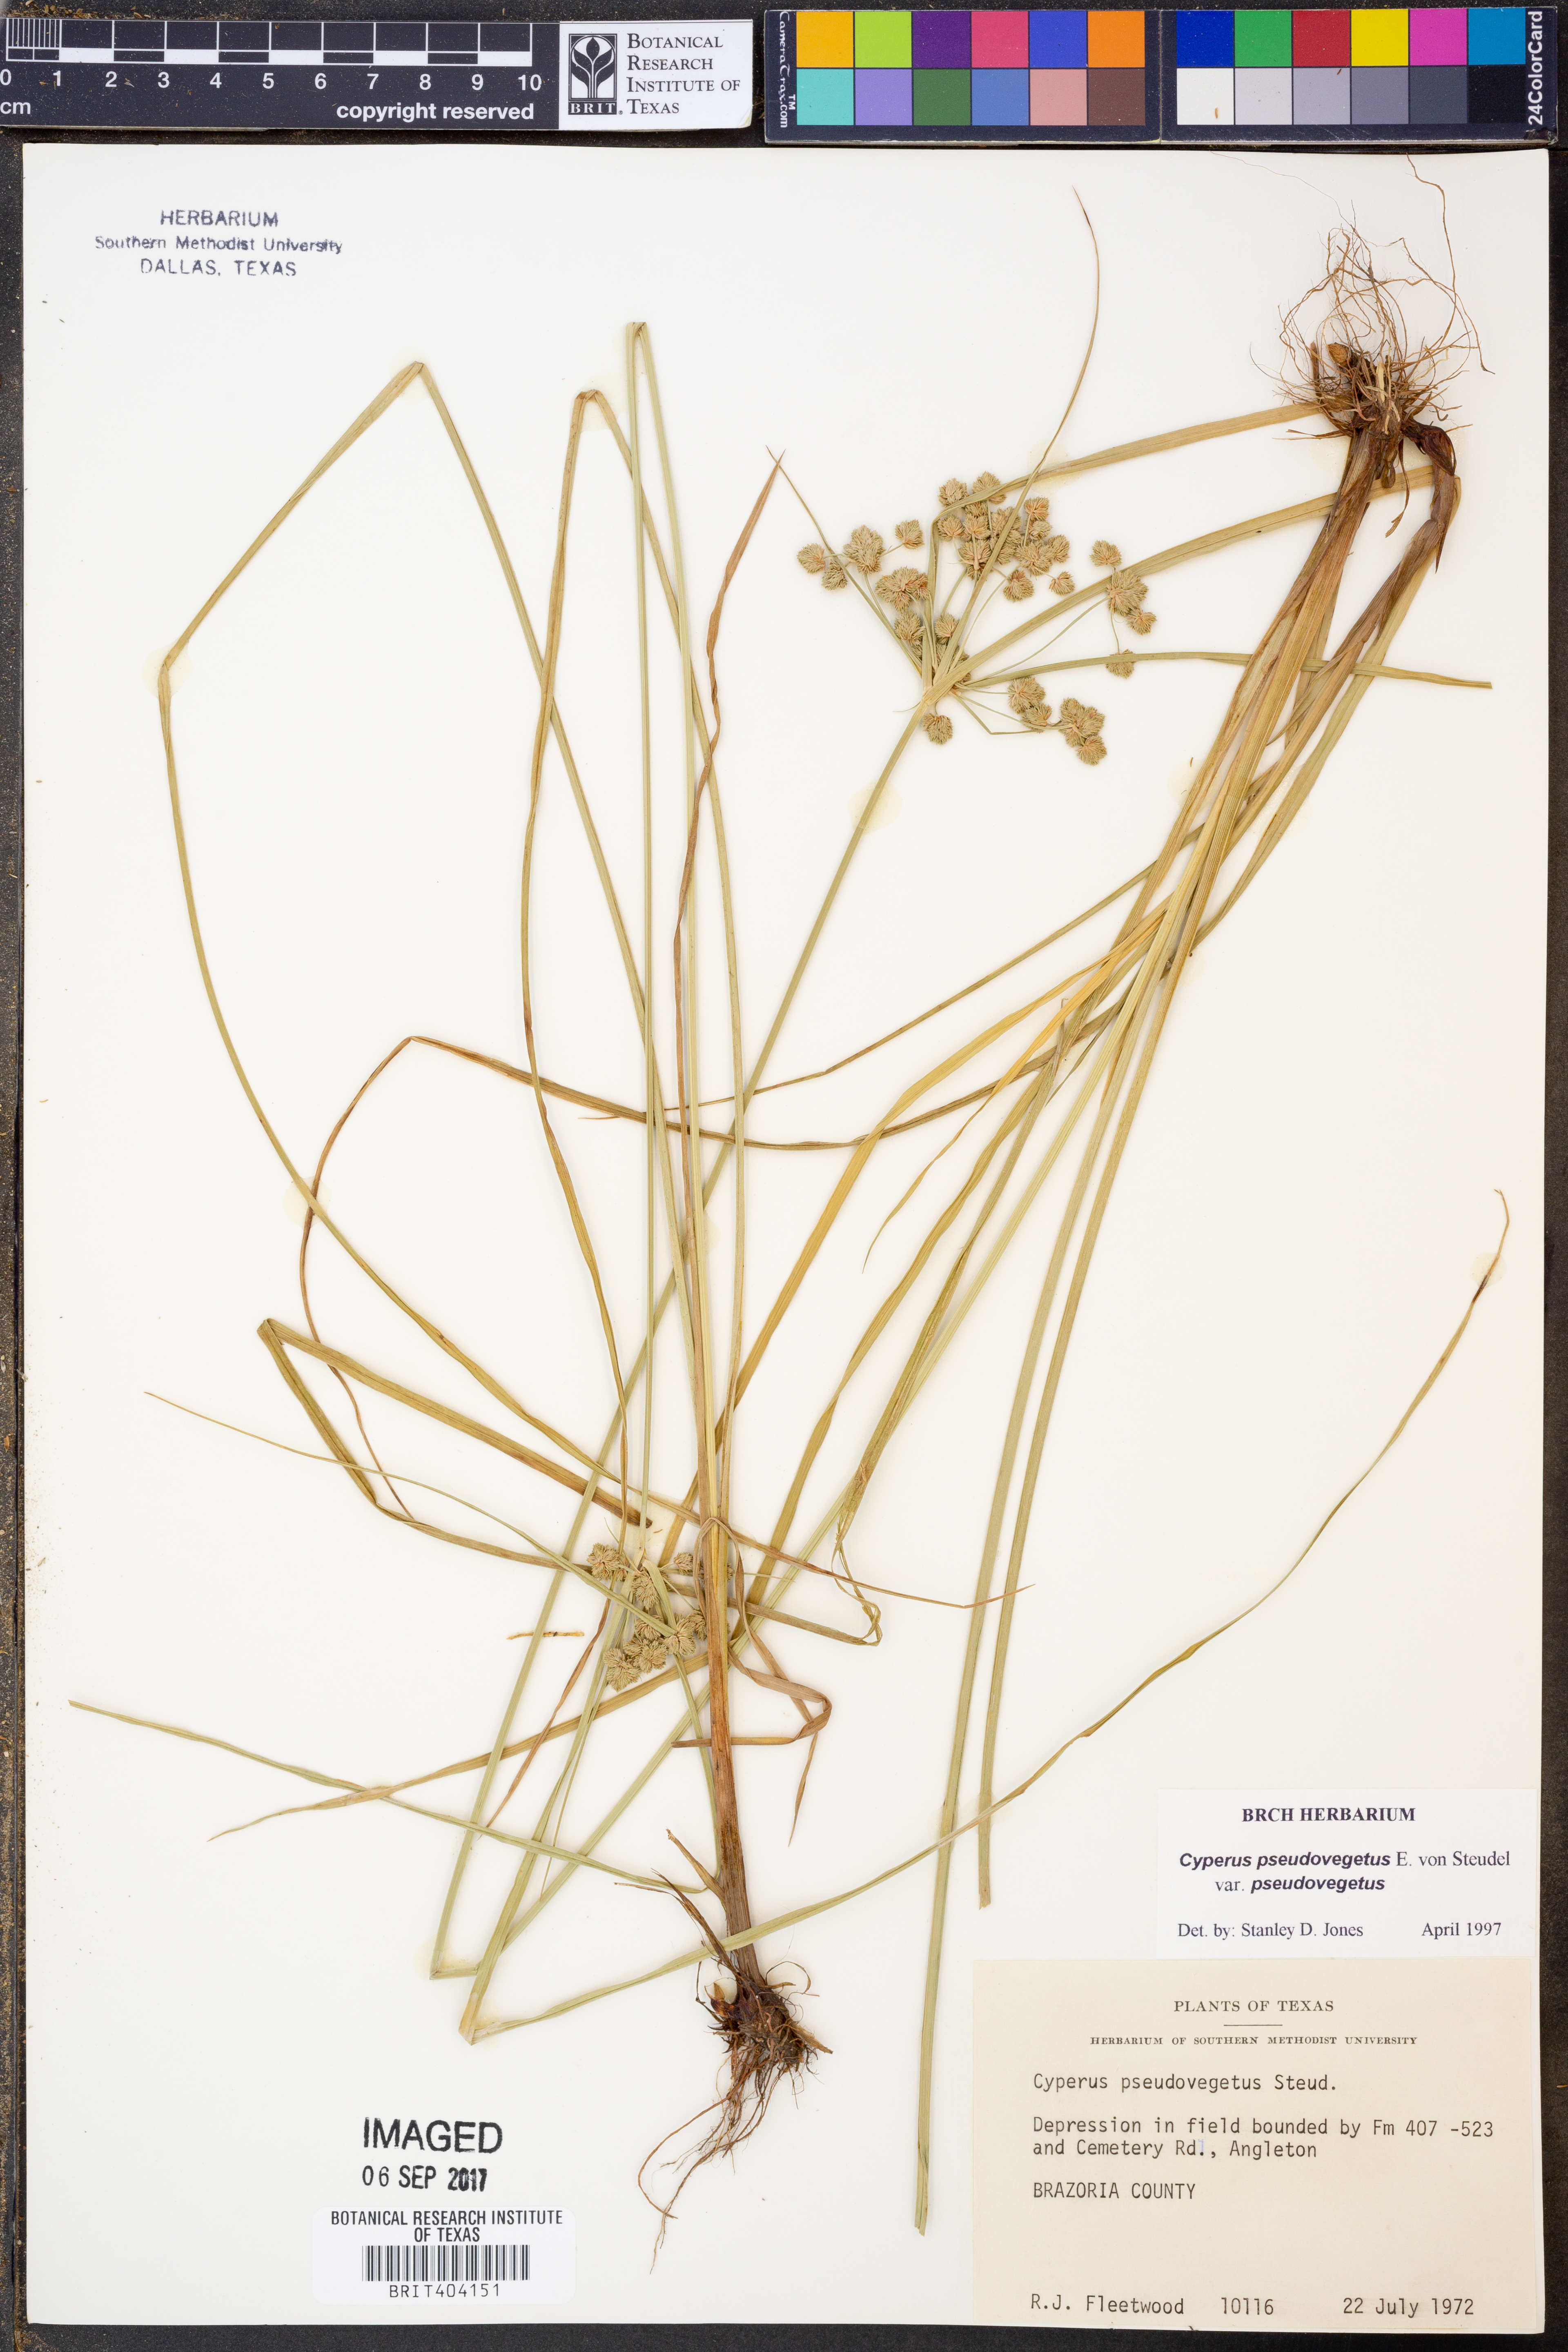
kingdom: Plantae
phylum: Tracheophyta
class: Liliopsida
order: Poales
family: Cyperaceae
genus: Cyperus
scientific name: Cyperus pseudovegetus
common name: Marsh flat sedge
